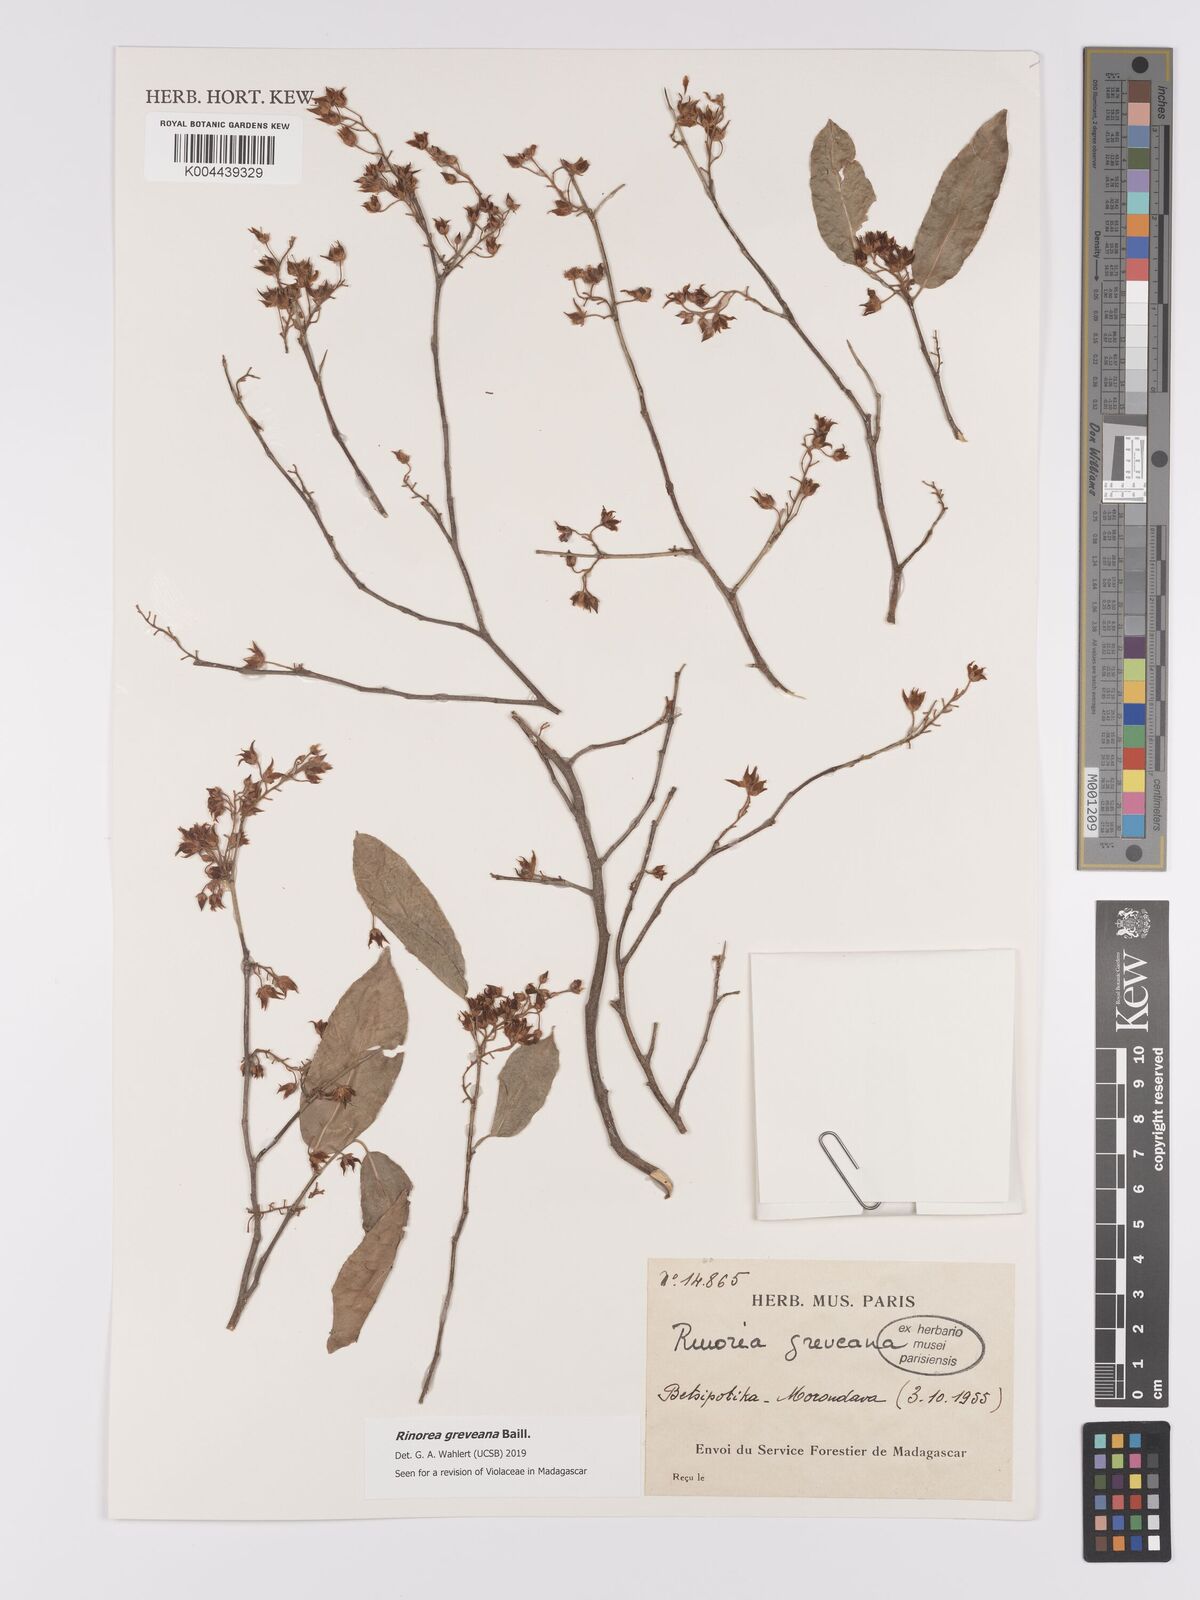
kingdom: Plantae
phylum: Tracheophyta
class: Magnoliopsida
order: Malpighiales
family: Violaceae
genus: Rinorea
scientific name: Rinorea greveana
